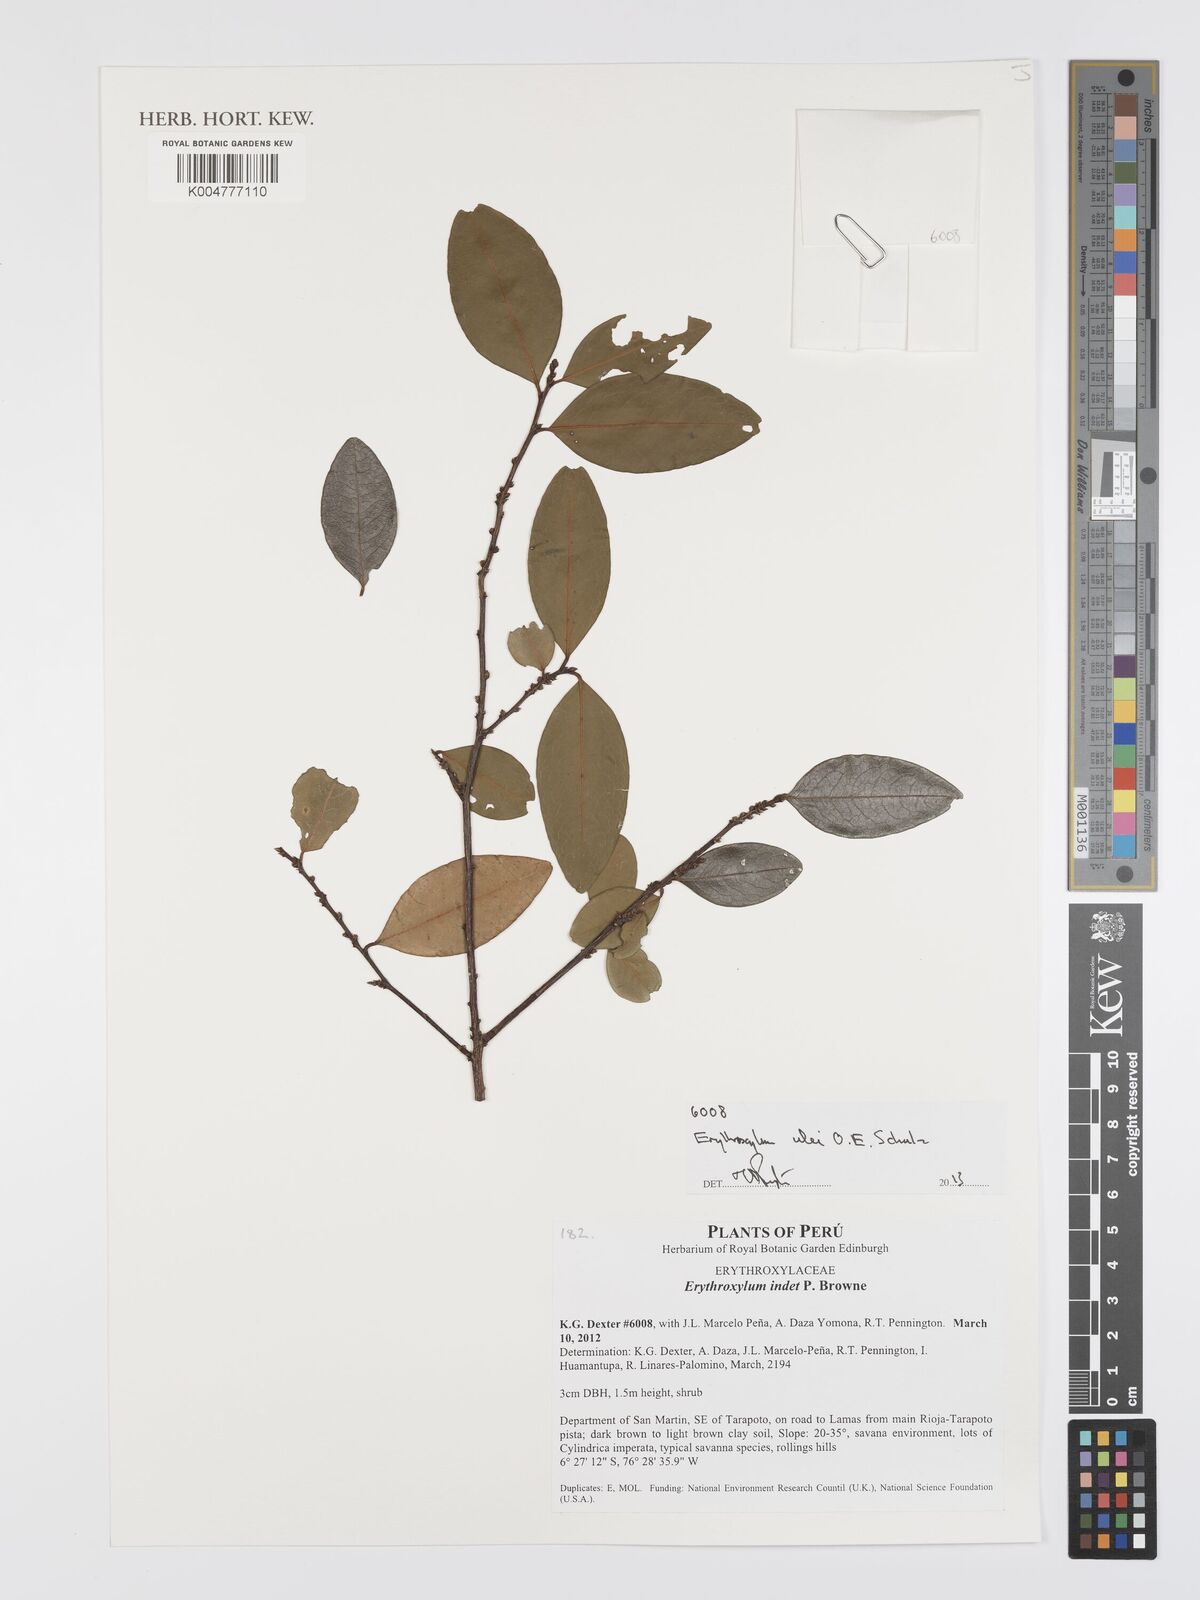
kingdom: Plantae
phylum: Tracheophyta
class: Magnoliopsida
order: Malpighiales
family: Erythroxylaceae
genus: Erythroxylum
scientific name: Erythroxylum ulei
